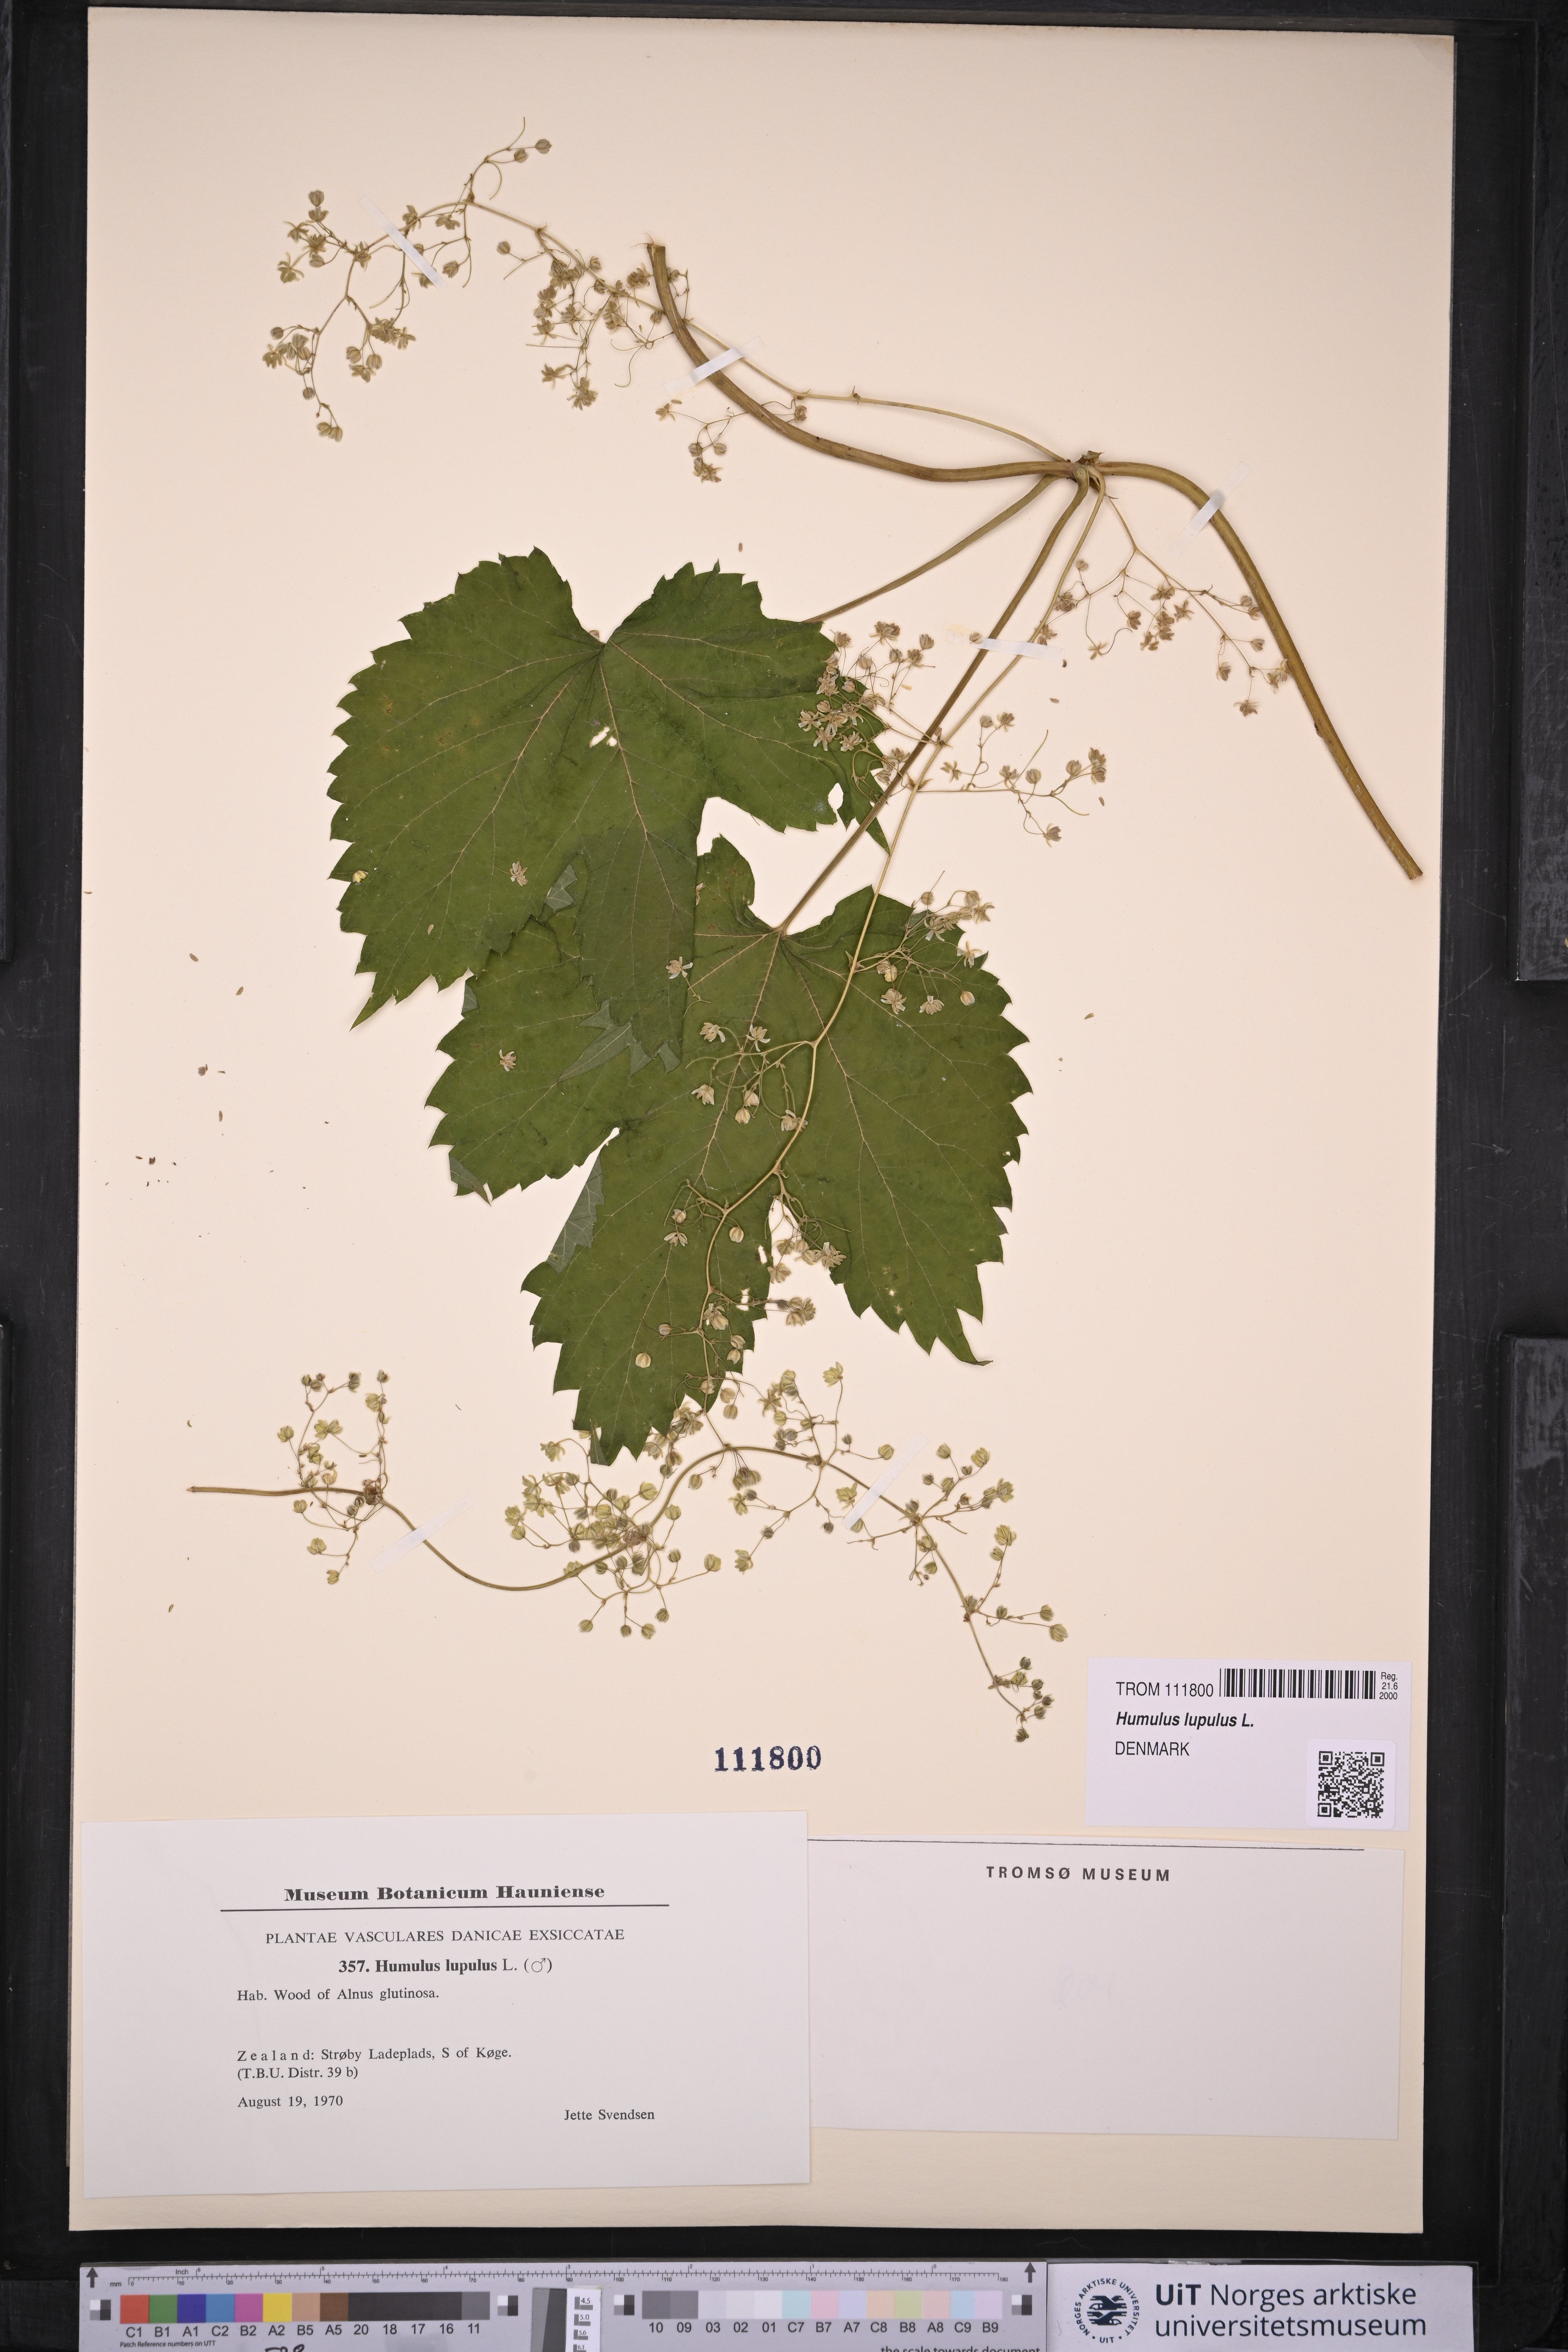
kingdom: Plantae
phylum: Tracheophyta
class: Magnoliopsida
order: Rosales
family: Cannabaceae
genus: Humulus
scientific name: Humulus lupulus
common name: Hop
